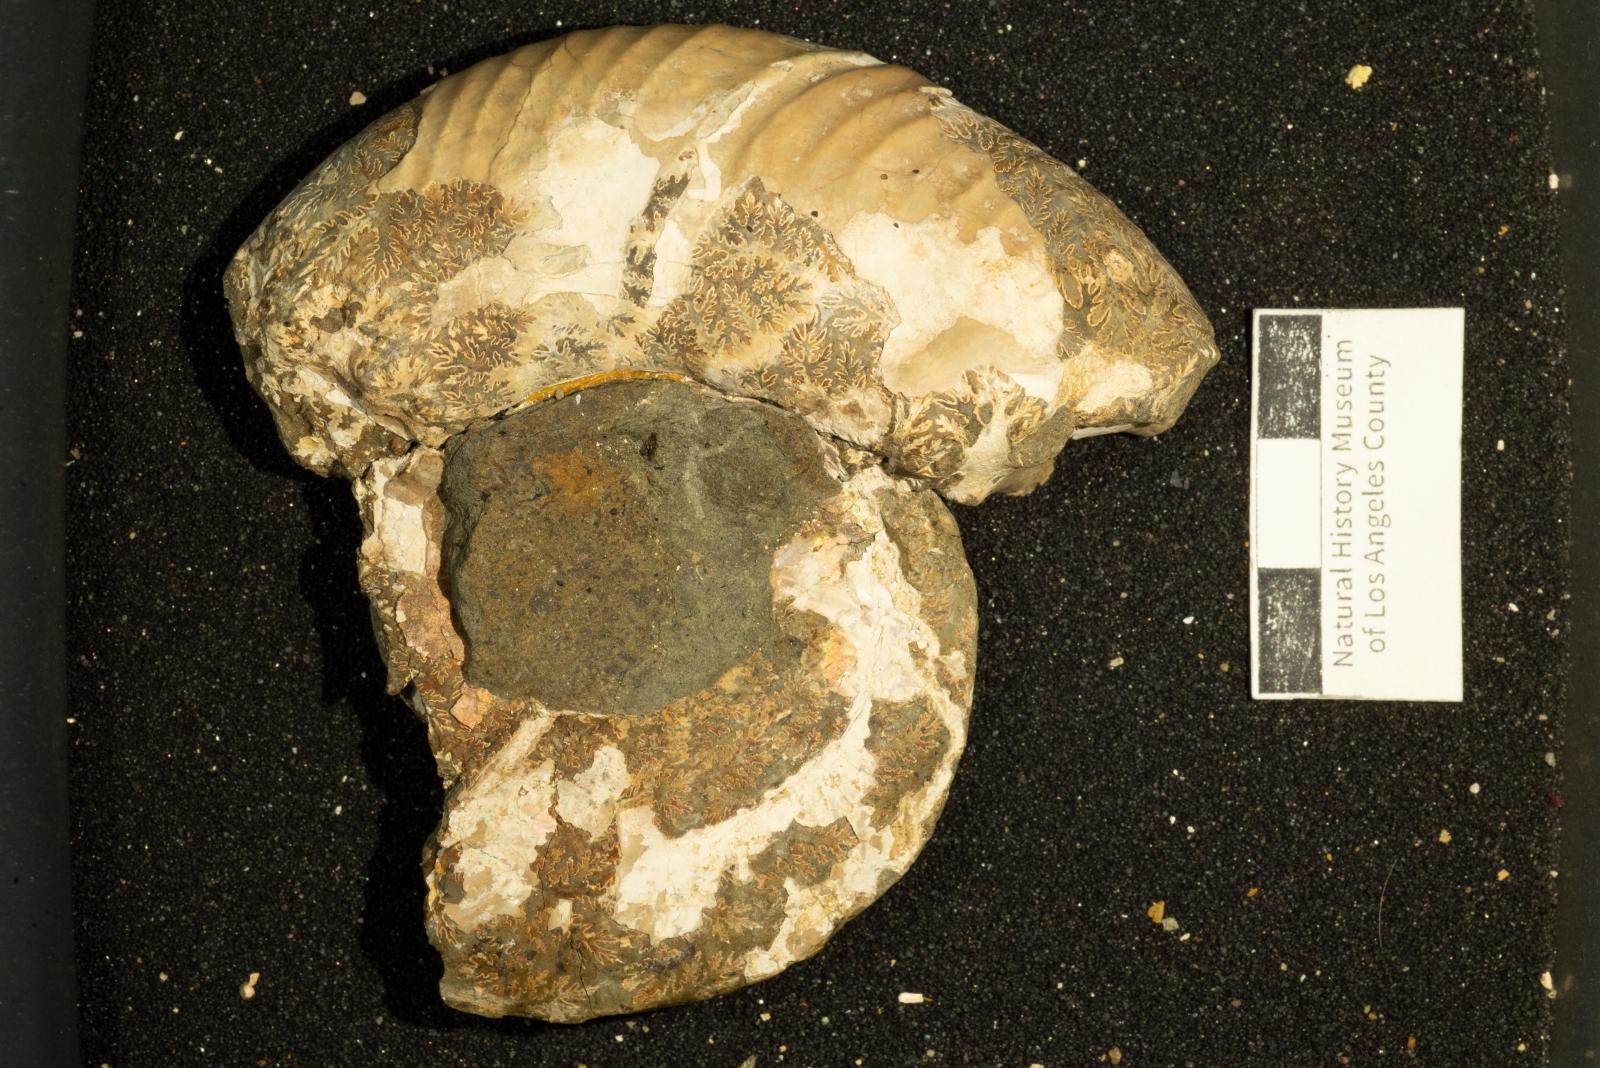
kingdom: Animalia
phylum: Mollusca
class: Cephalopoda
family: Desmoceratidae
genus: Puzosia
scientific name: Puzosia
